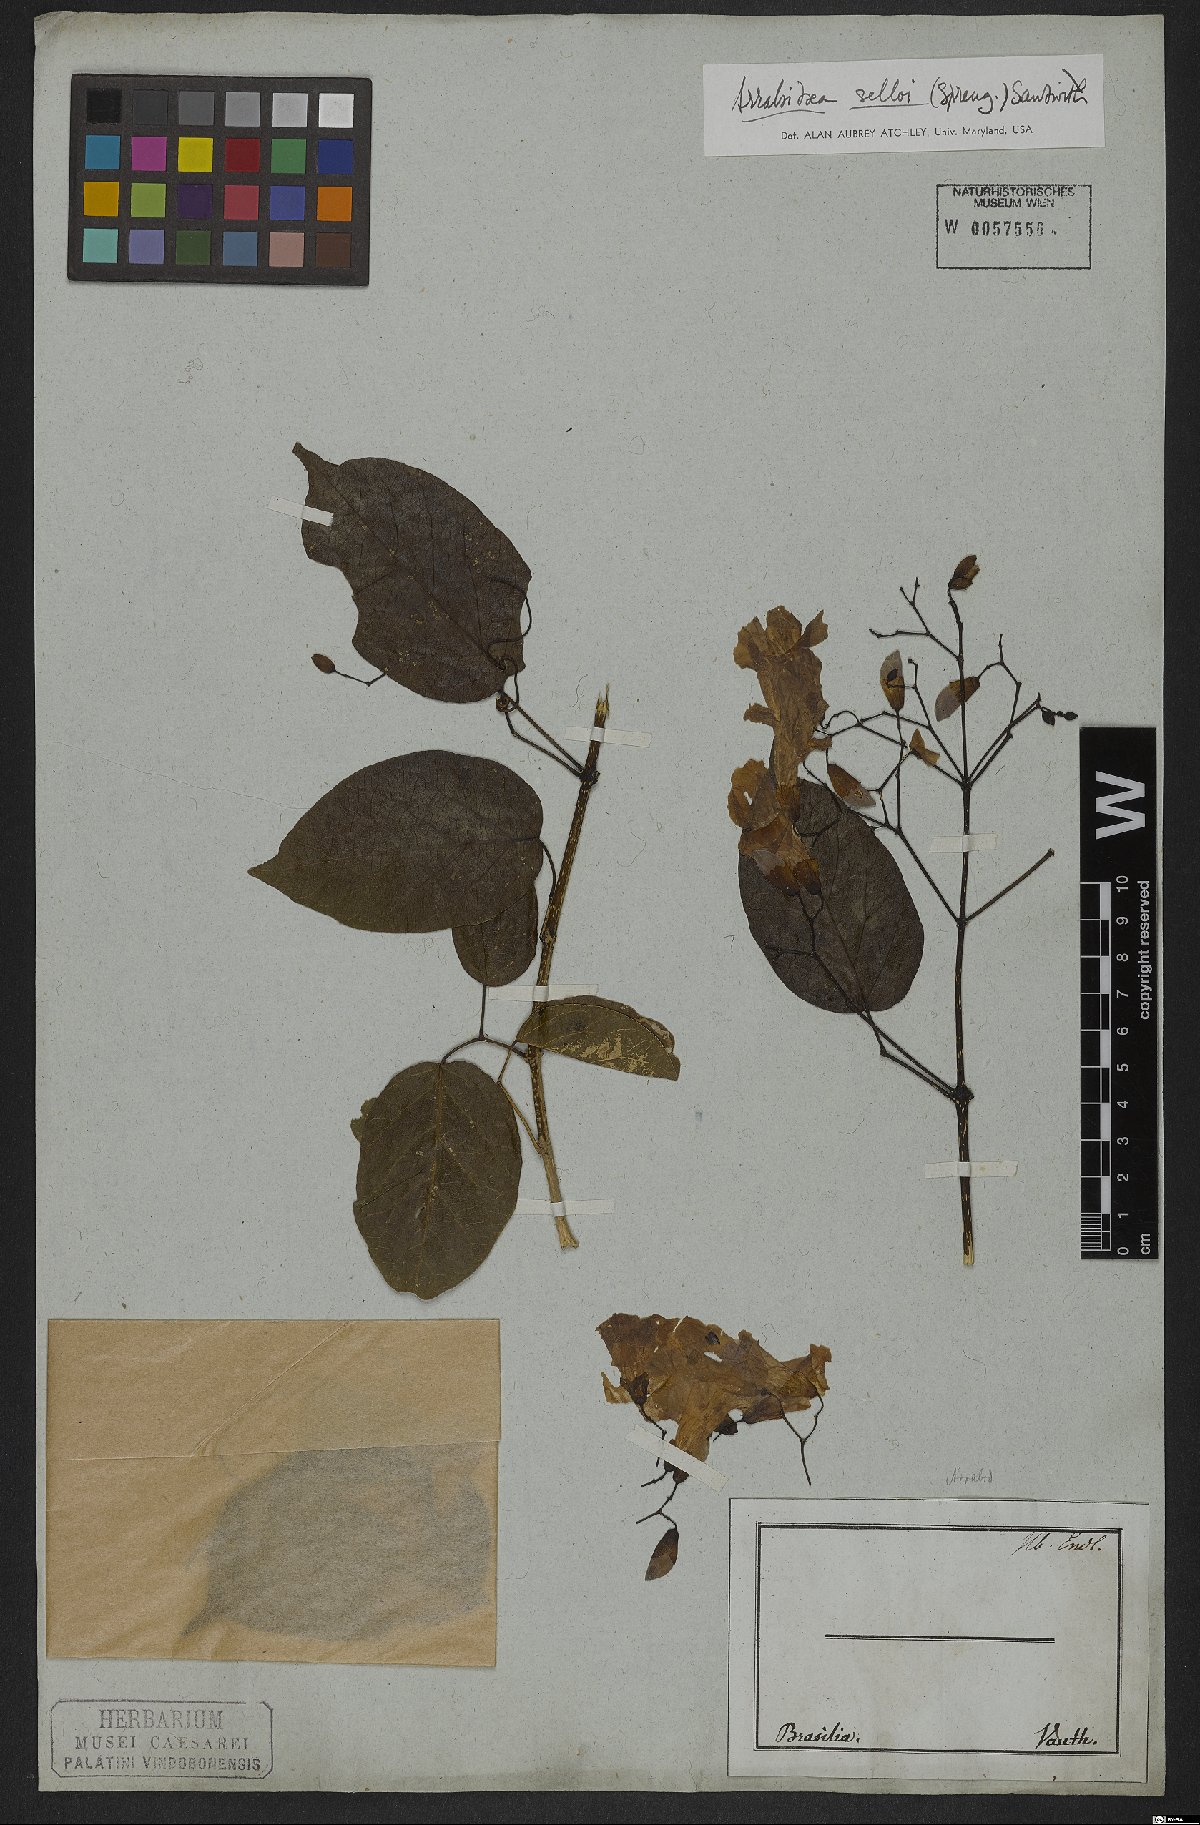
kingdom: Plantae
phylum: Tracheophyta
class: Magnoliopsida
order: Lamiales
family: Bignoniaceae
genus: Tanaecium
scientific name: Tanaecium selloi
